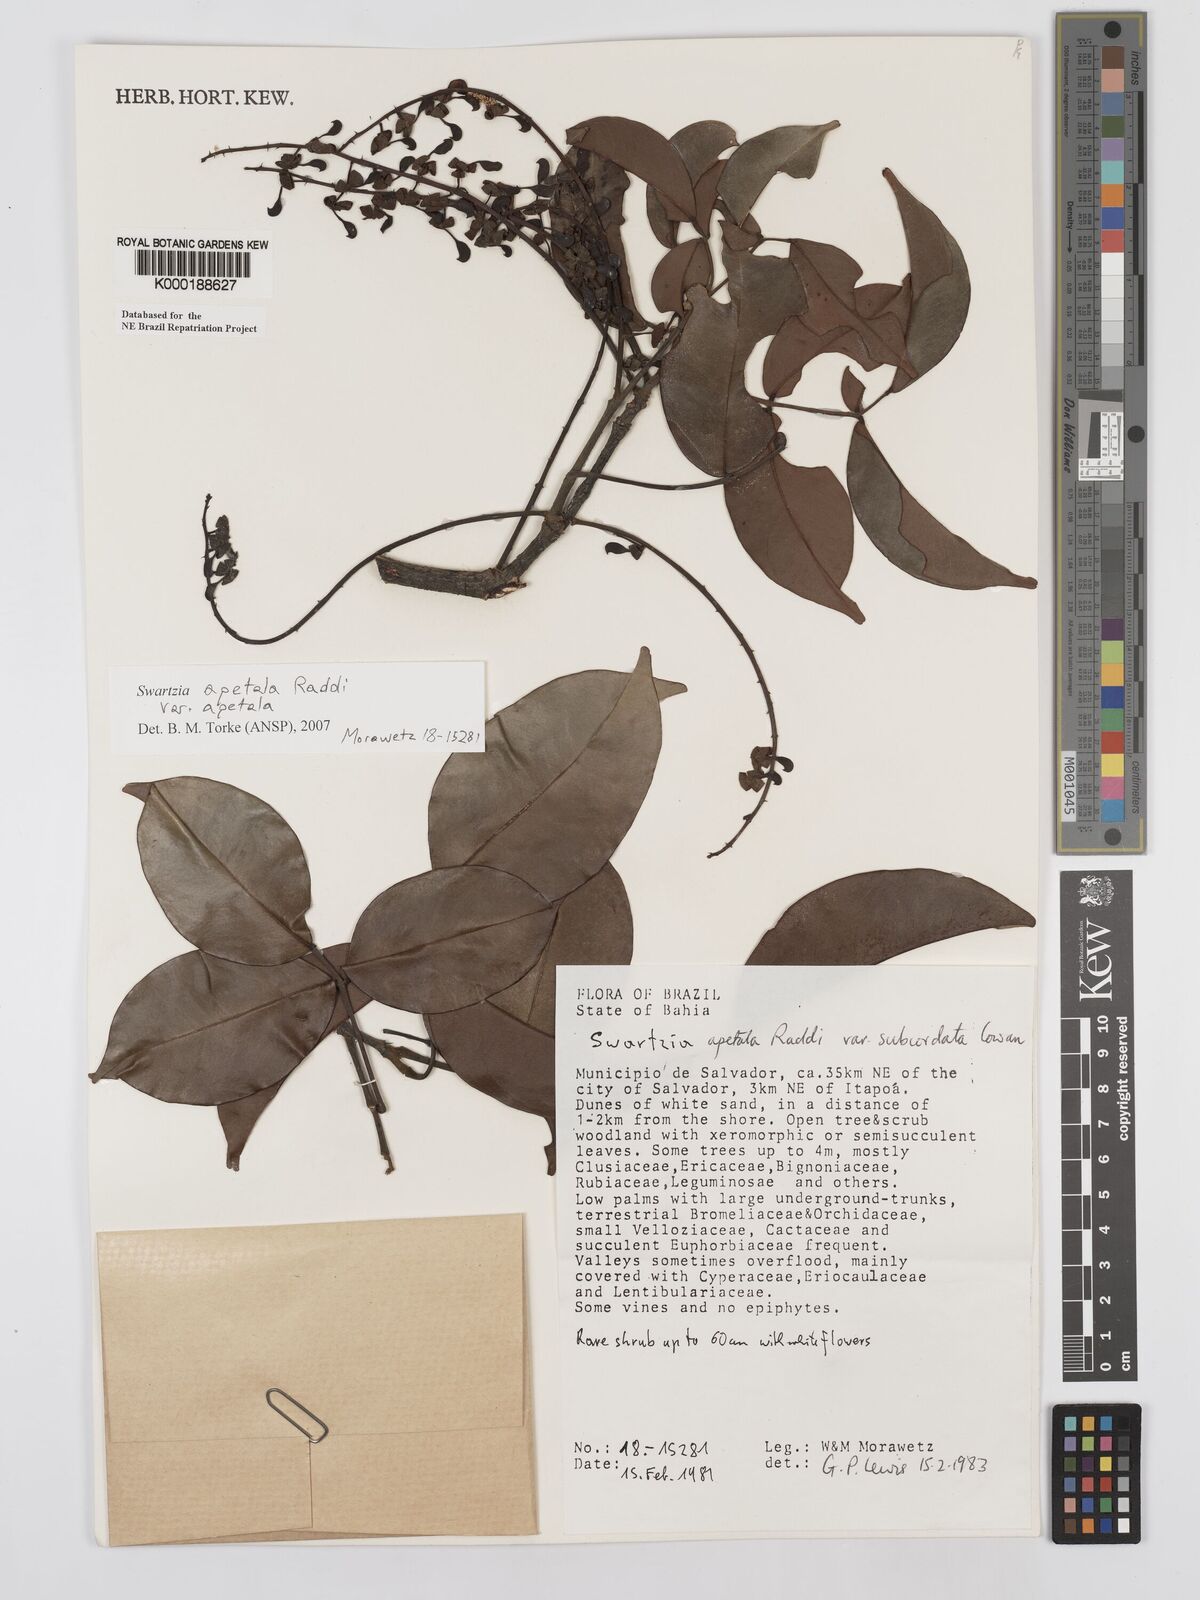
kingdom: Plantae
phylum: Tracheophyta
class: Magnoliopsida
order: Fabales
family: Fabaceae
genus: Swartzia
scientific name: Swartzia apetala
